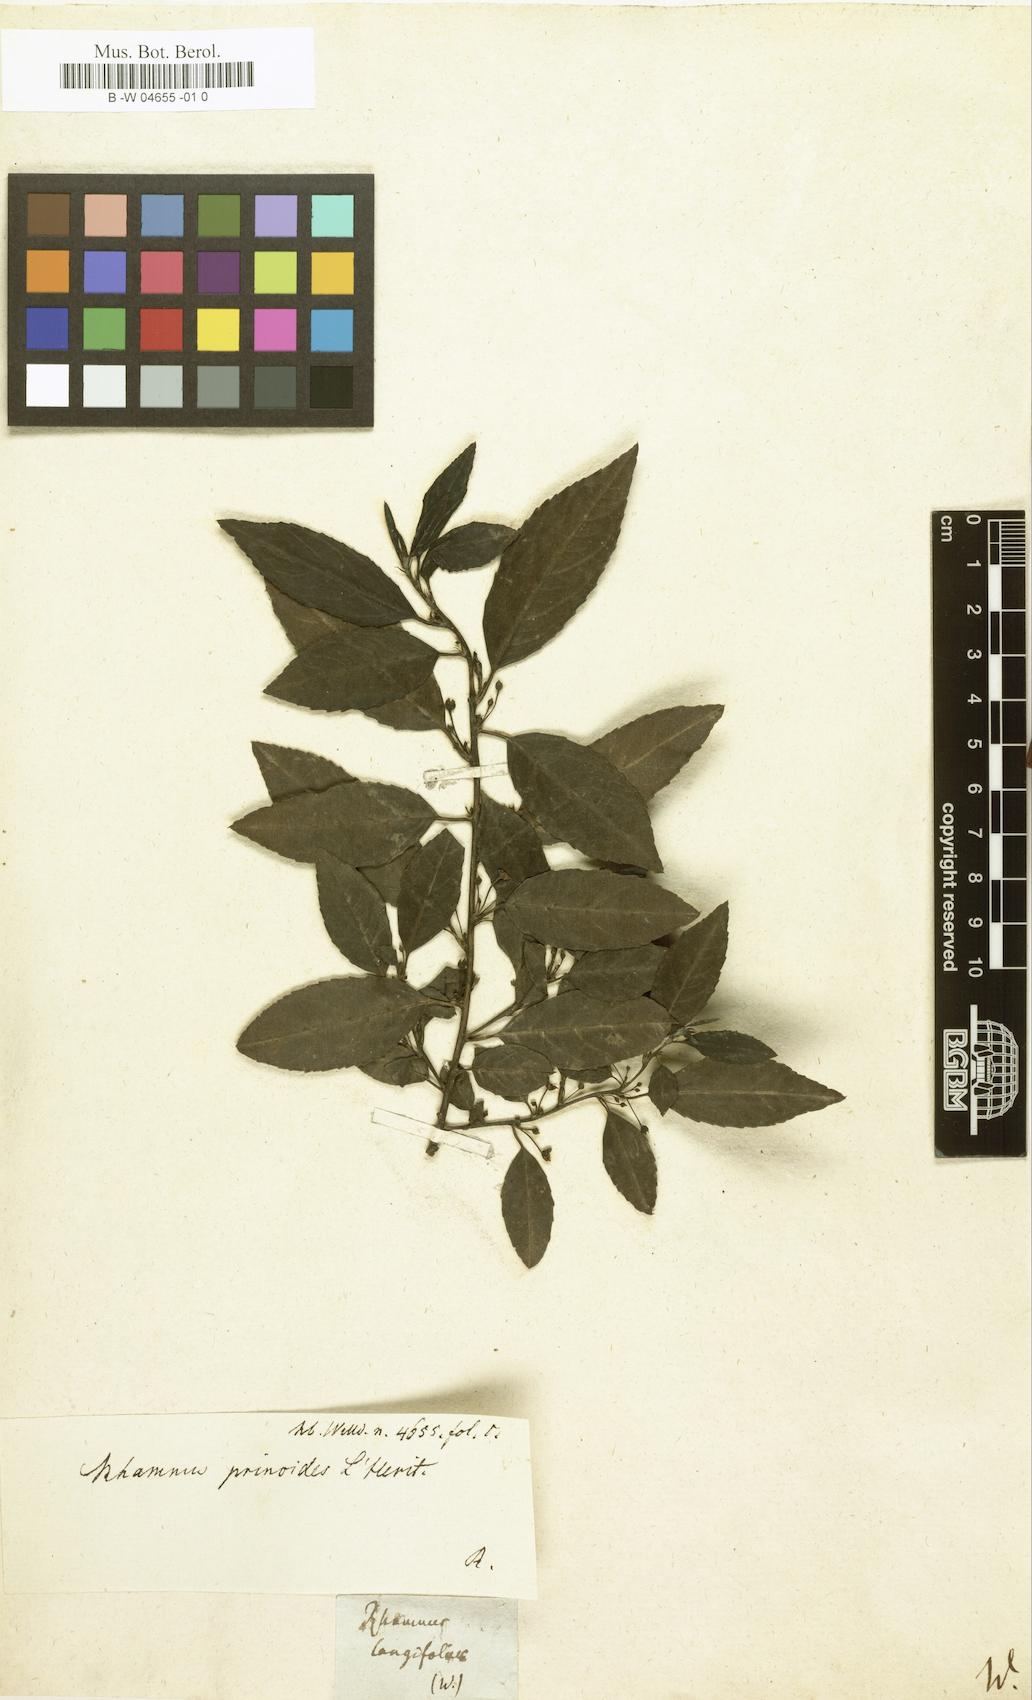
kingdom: Plantae
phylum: Tracheophyta
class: Magnoliopsida
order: Rosales
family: Rhamnaceae
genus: Rhamnus
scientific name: Rhamnus longifolia
